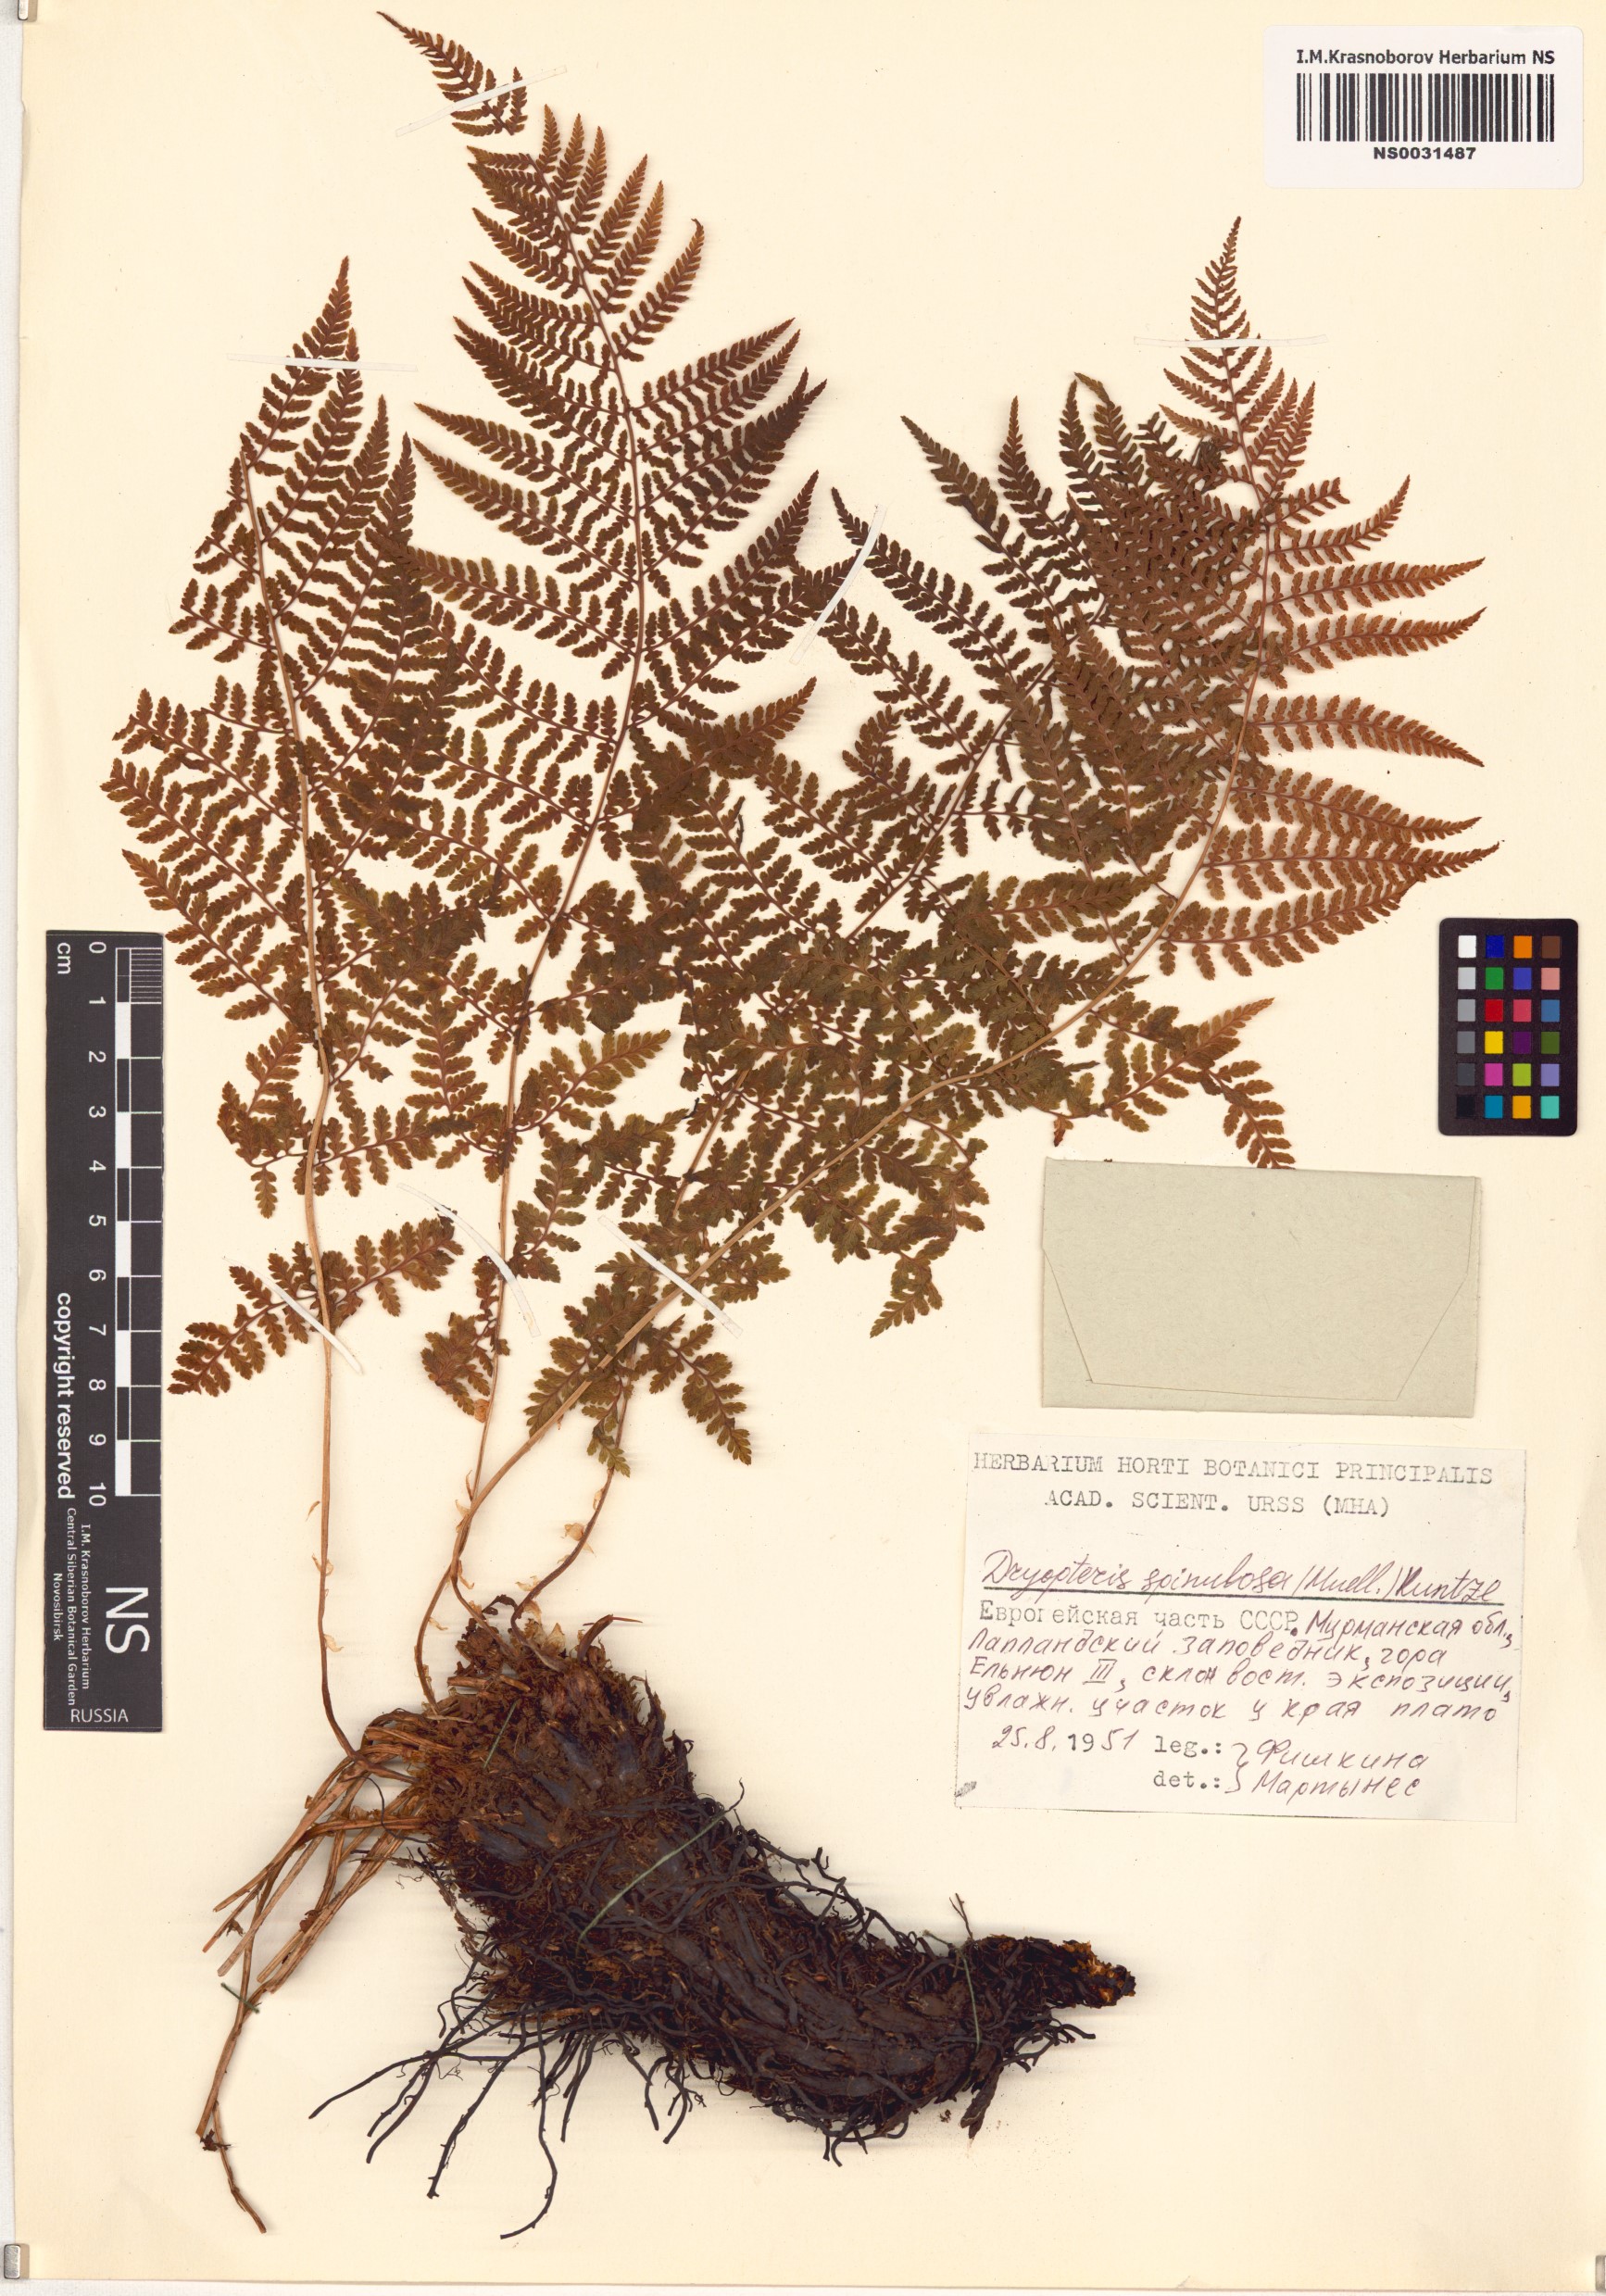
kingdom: Plantae
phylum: Tracheophyta
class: Polypodiopsida
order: Polypodiales
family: Dryopteridaceae
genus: Dryopteris
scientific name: Dryopteris carthusiana
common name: Narrow buckler-fern
